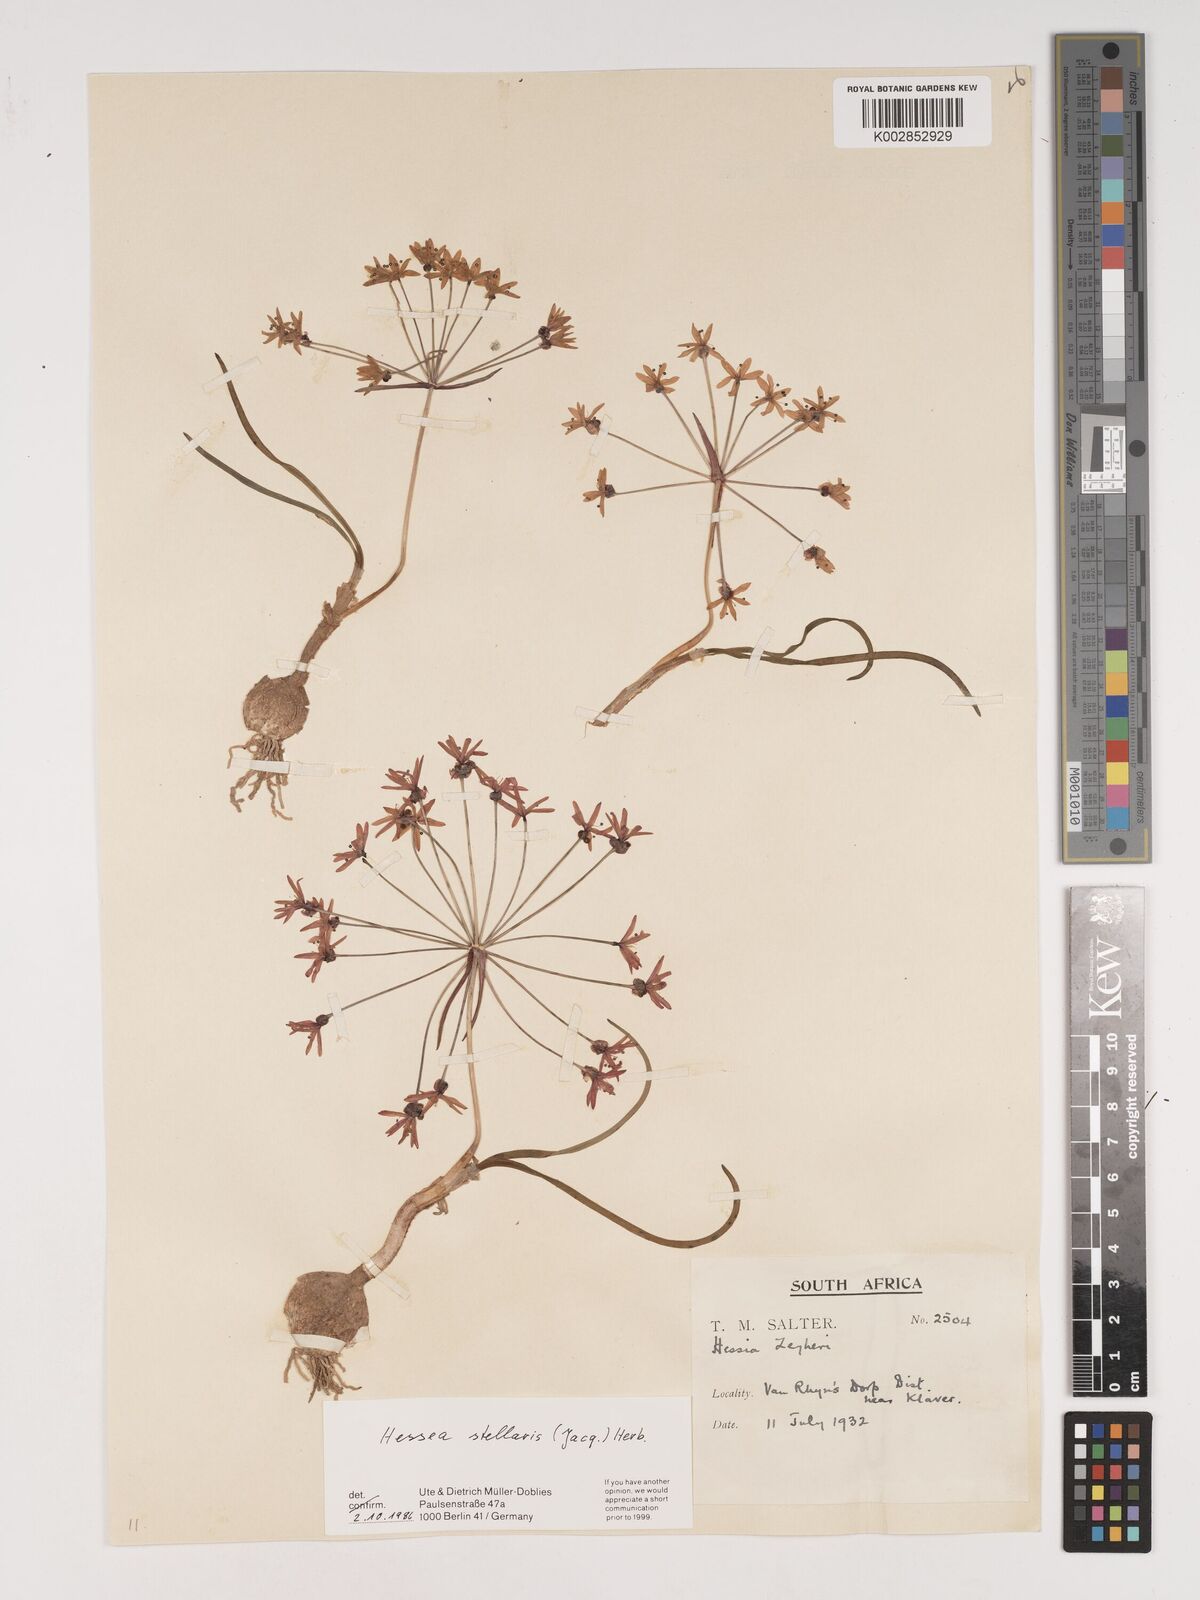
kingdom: Plantae
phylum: Tracheophyta
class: Liliopsida
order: Asparagales
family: Amaryllidaceae
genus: Hessea
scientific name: Hessea stellaris
